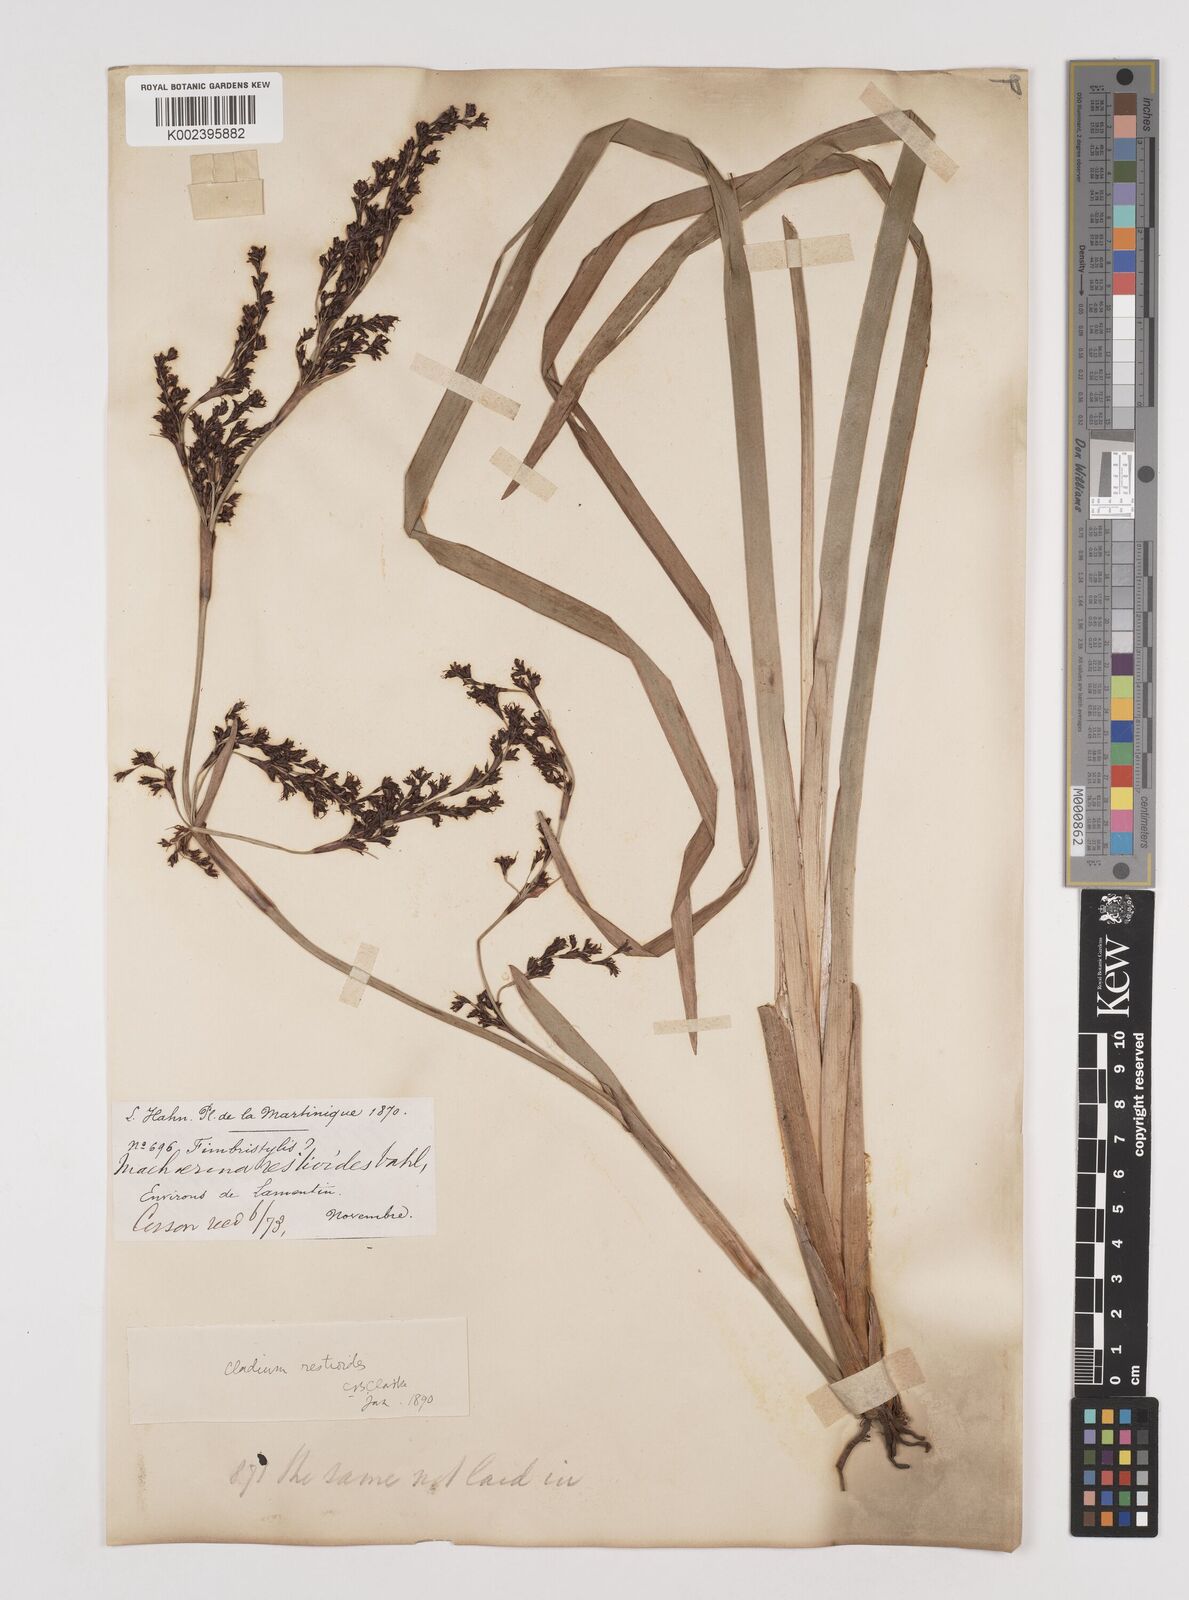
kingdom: Plantae
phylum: Tracheophyta
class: Liliopsida
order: Poales
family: Cyperaceae
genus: Machaerina
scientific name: Machaerina restioides
